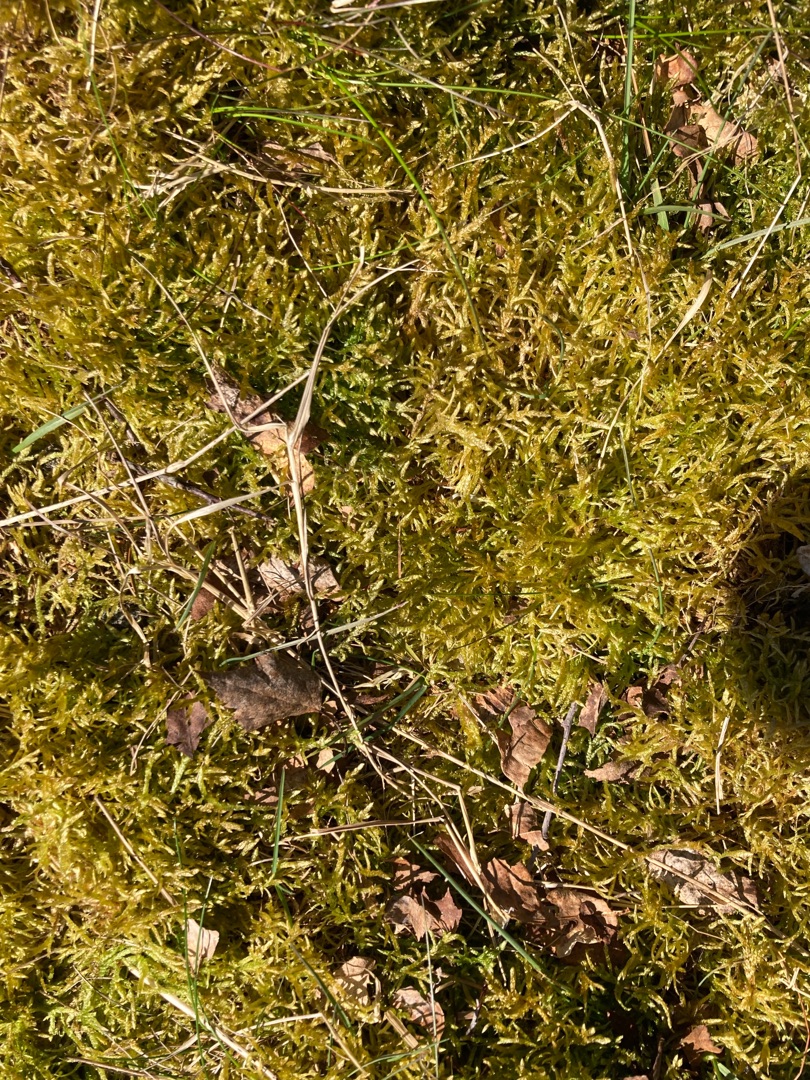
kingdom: Plantae
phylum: Bryophyta
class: Bryopsida
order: Hypnales
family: Brachytheciaceae
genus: Pseudoscleropodium
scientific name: Pseudoscleropodium purum
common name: Hulbladet fedtmos
